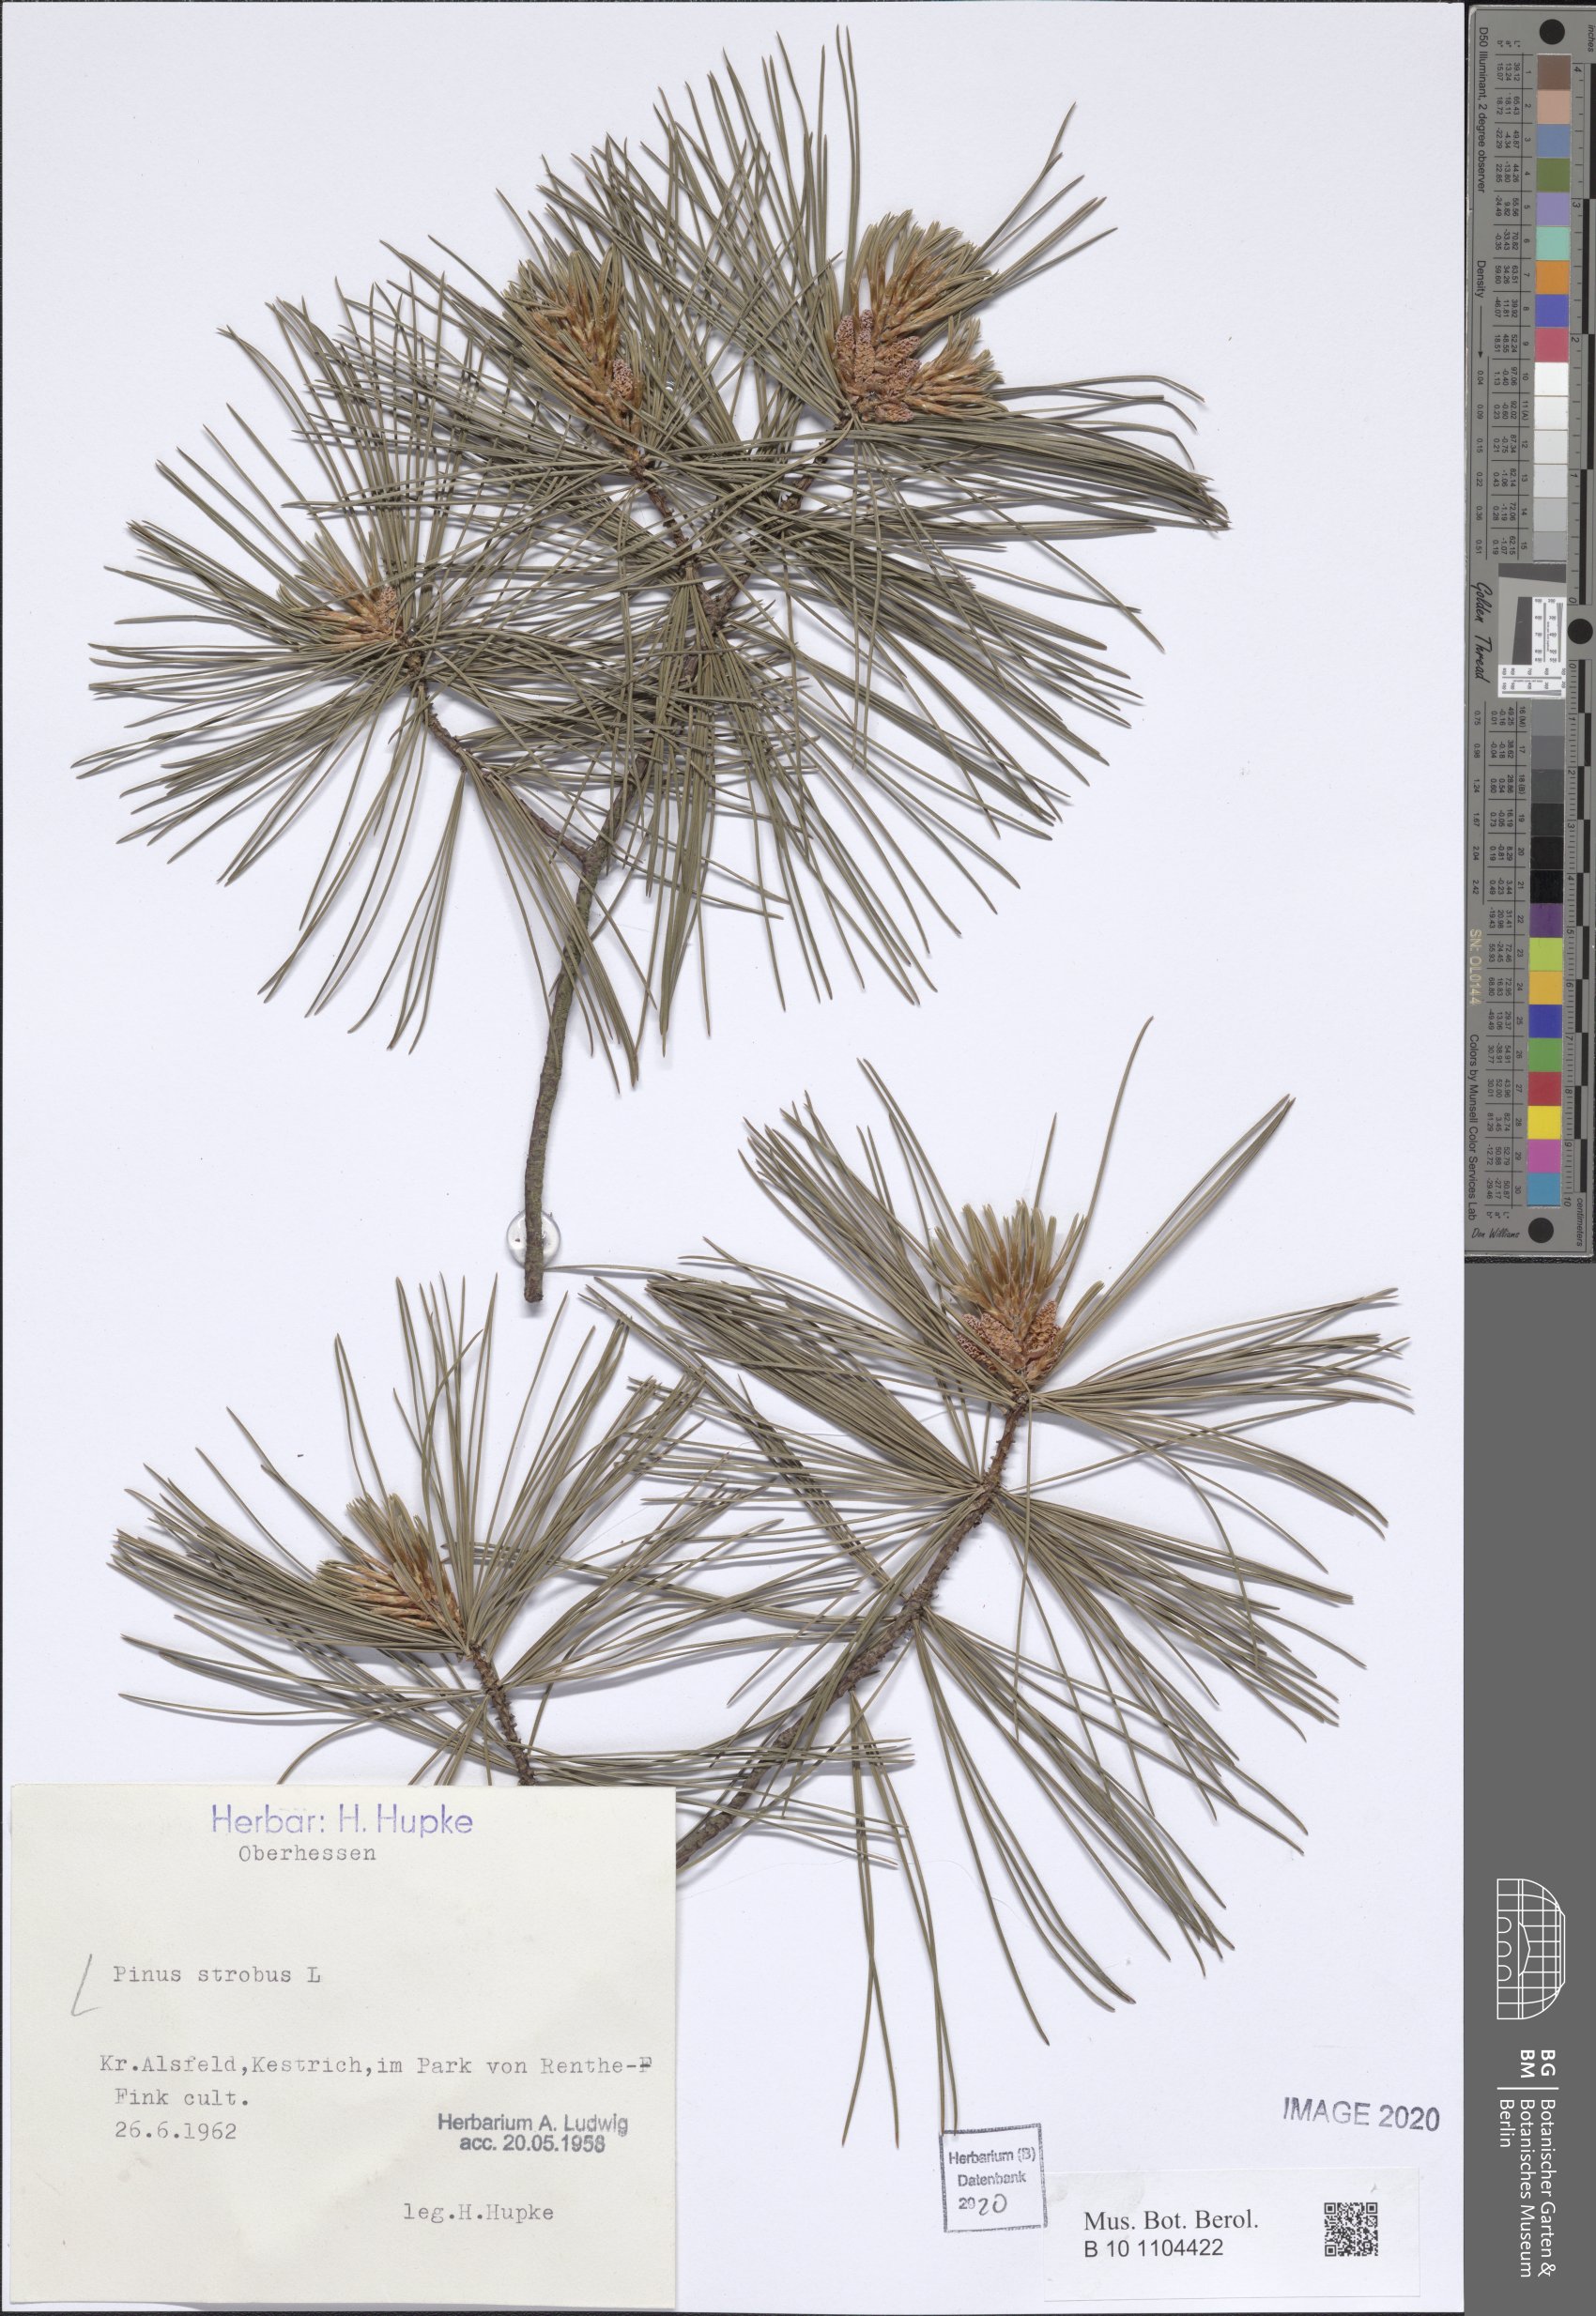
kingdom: Plantae
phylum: Tracheophyta
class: Pinopsida
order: Pinales
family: Pinaceae
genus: Pinus
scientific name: Pinus strobus
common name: Weymouth pine
